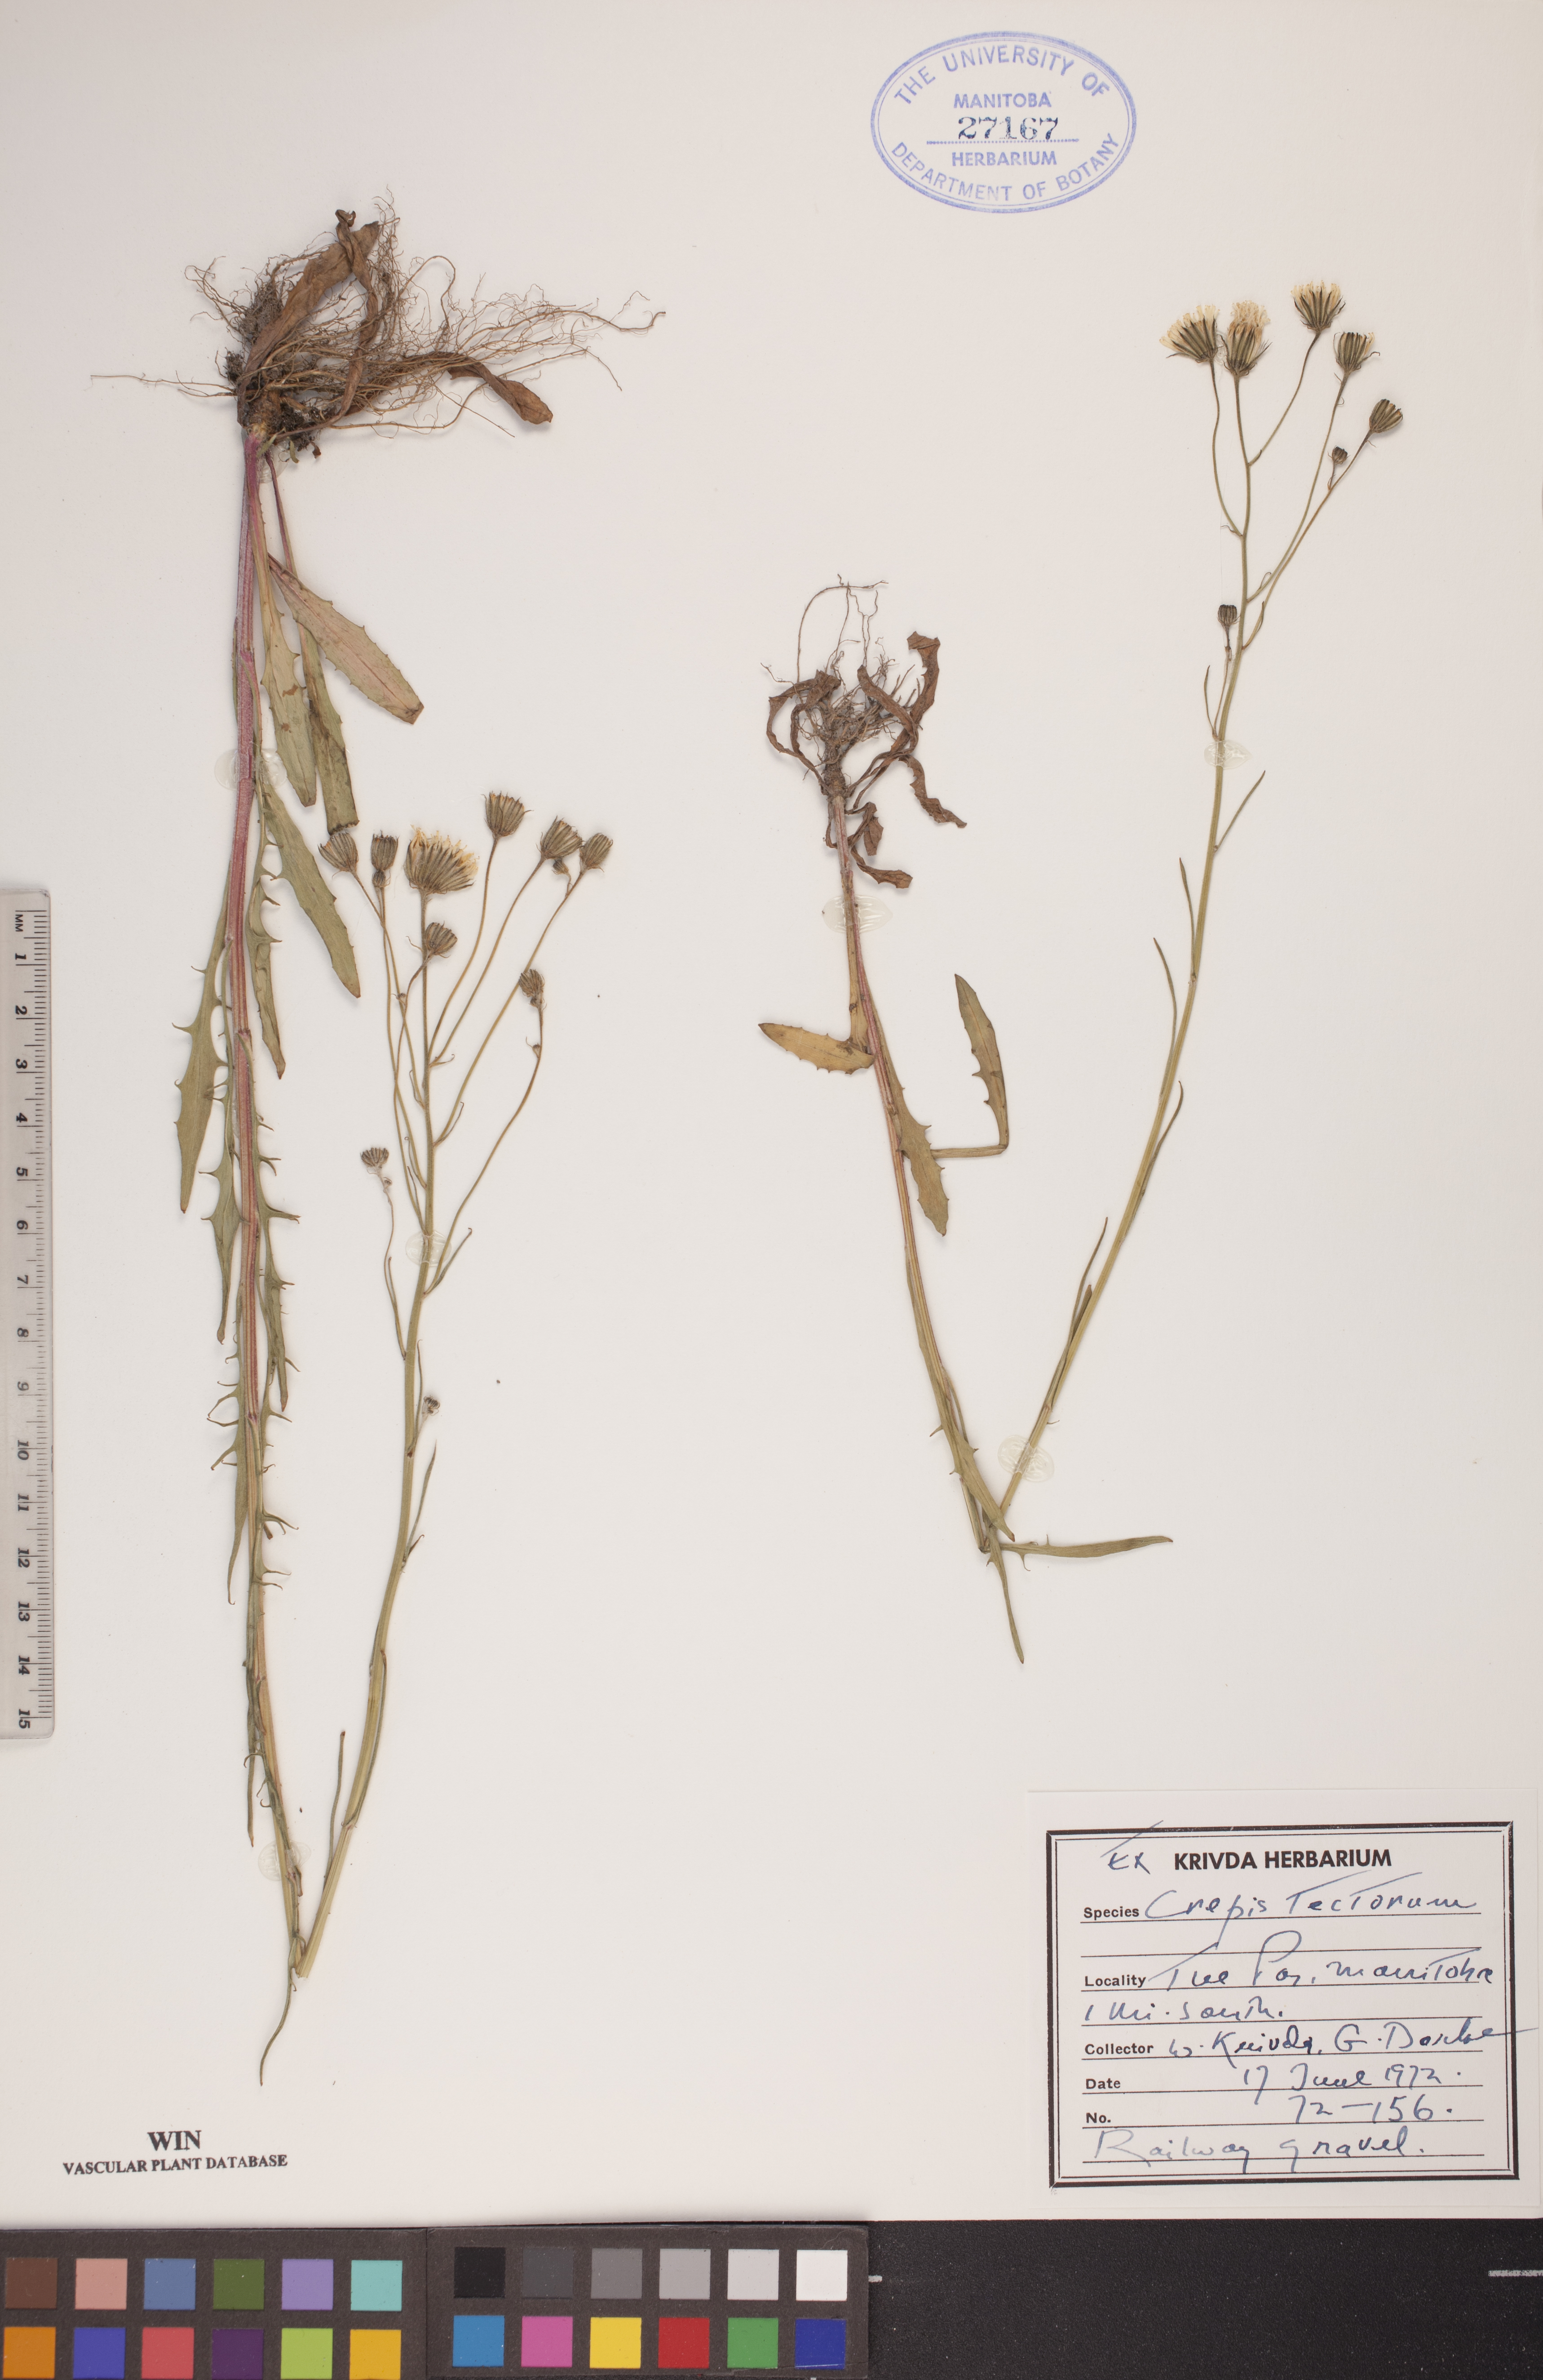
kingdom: Plantae
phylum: Tracheophyta
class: Magnoliopsida
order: Asterales
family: Asteraceae
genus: Crepis
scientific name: Crepis tectorum
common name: Narrow-leaved hawk's-beard
